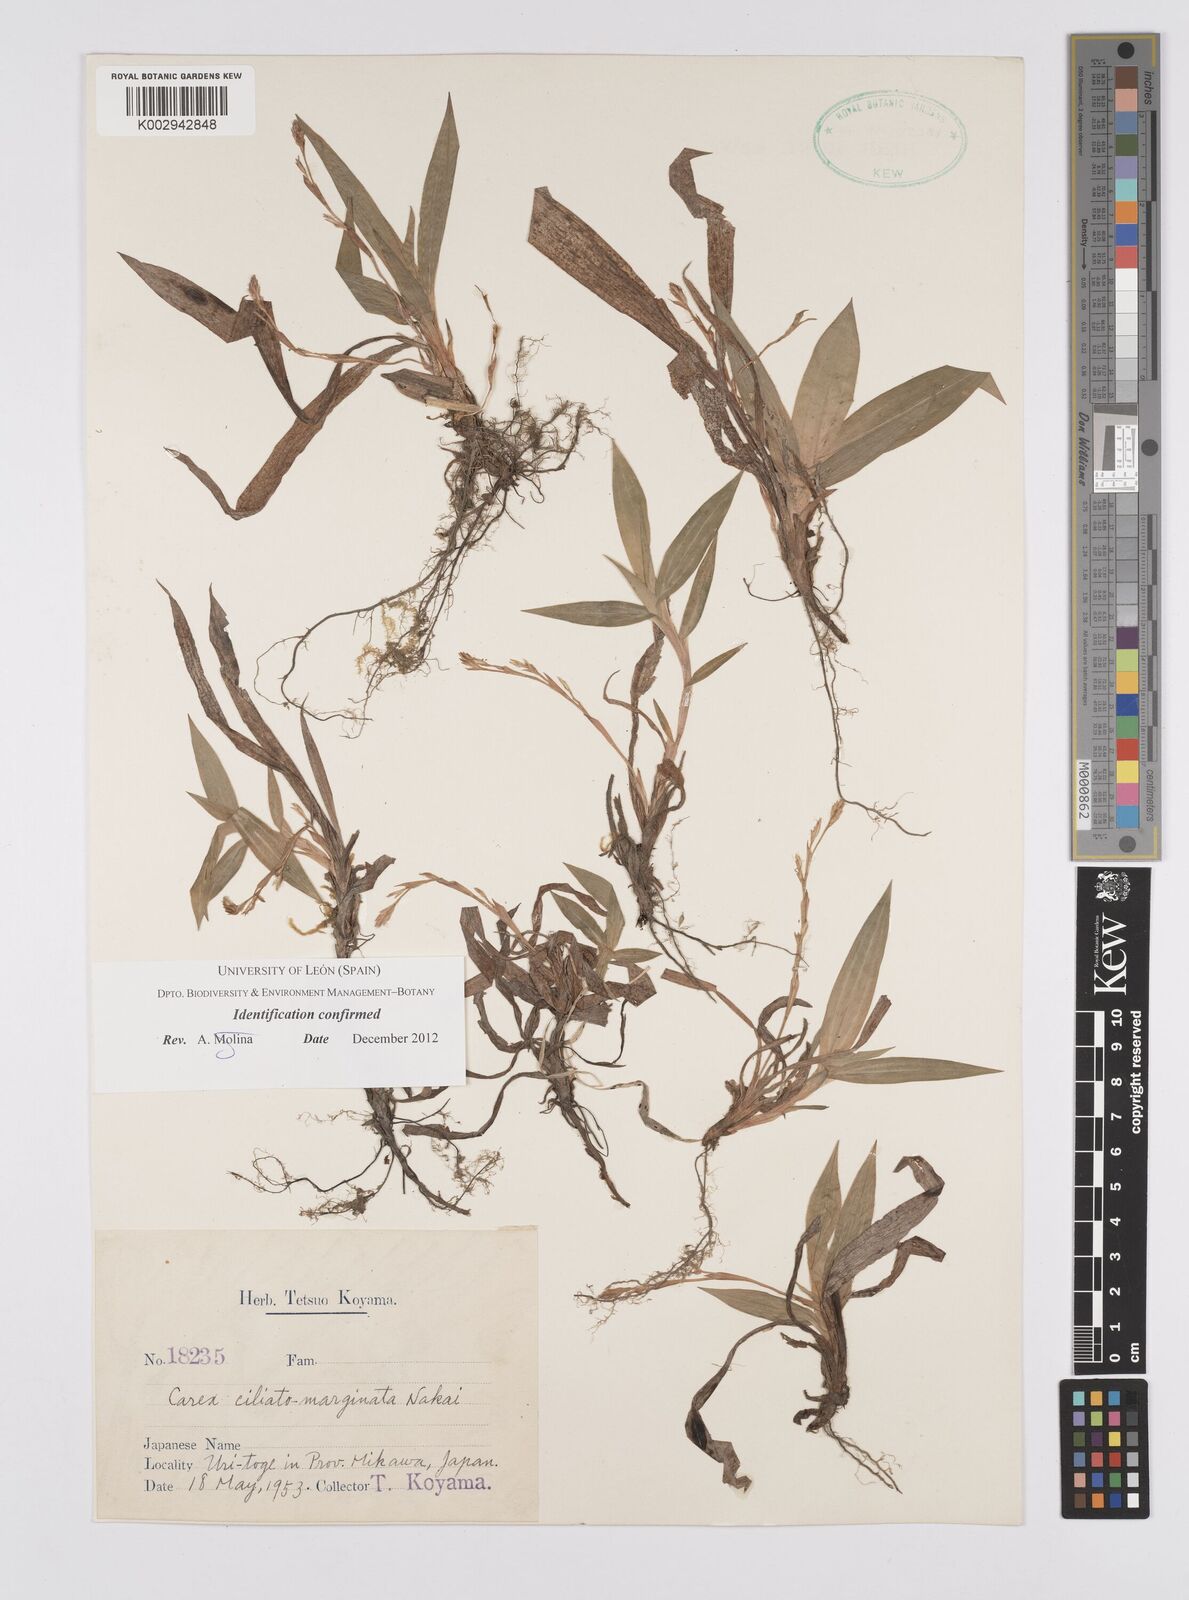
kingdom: Plantae
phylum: Tracheophyta
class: Liliopsida
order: Poales
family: Cyperaceae
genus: Carex
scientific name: Carex siderosticta
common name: Broadleaf sedge
